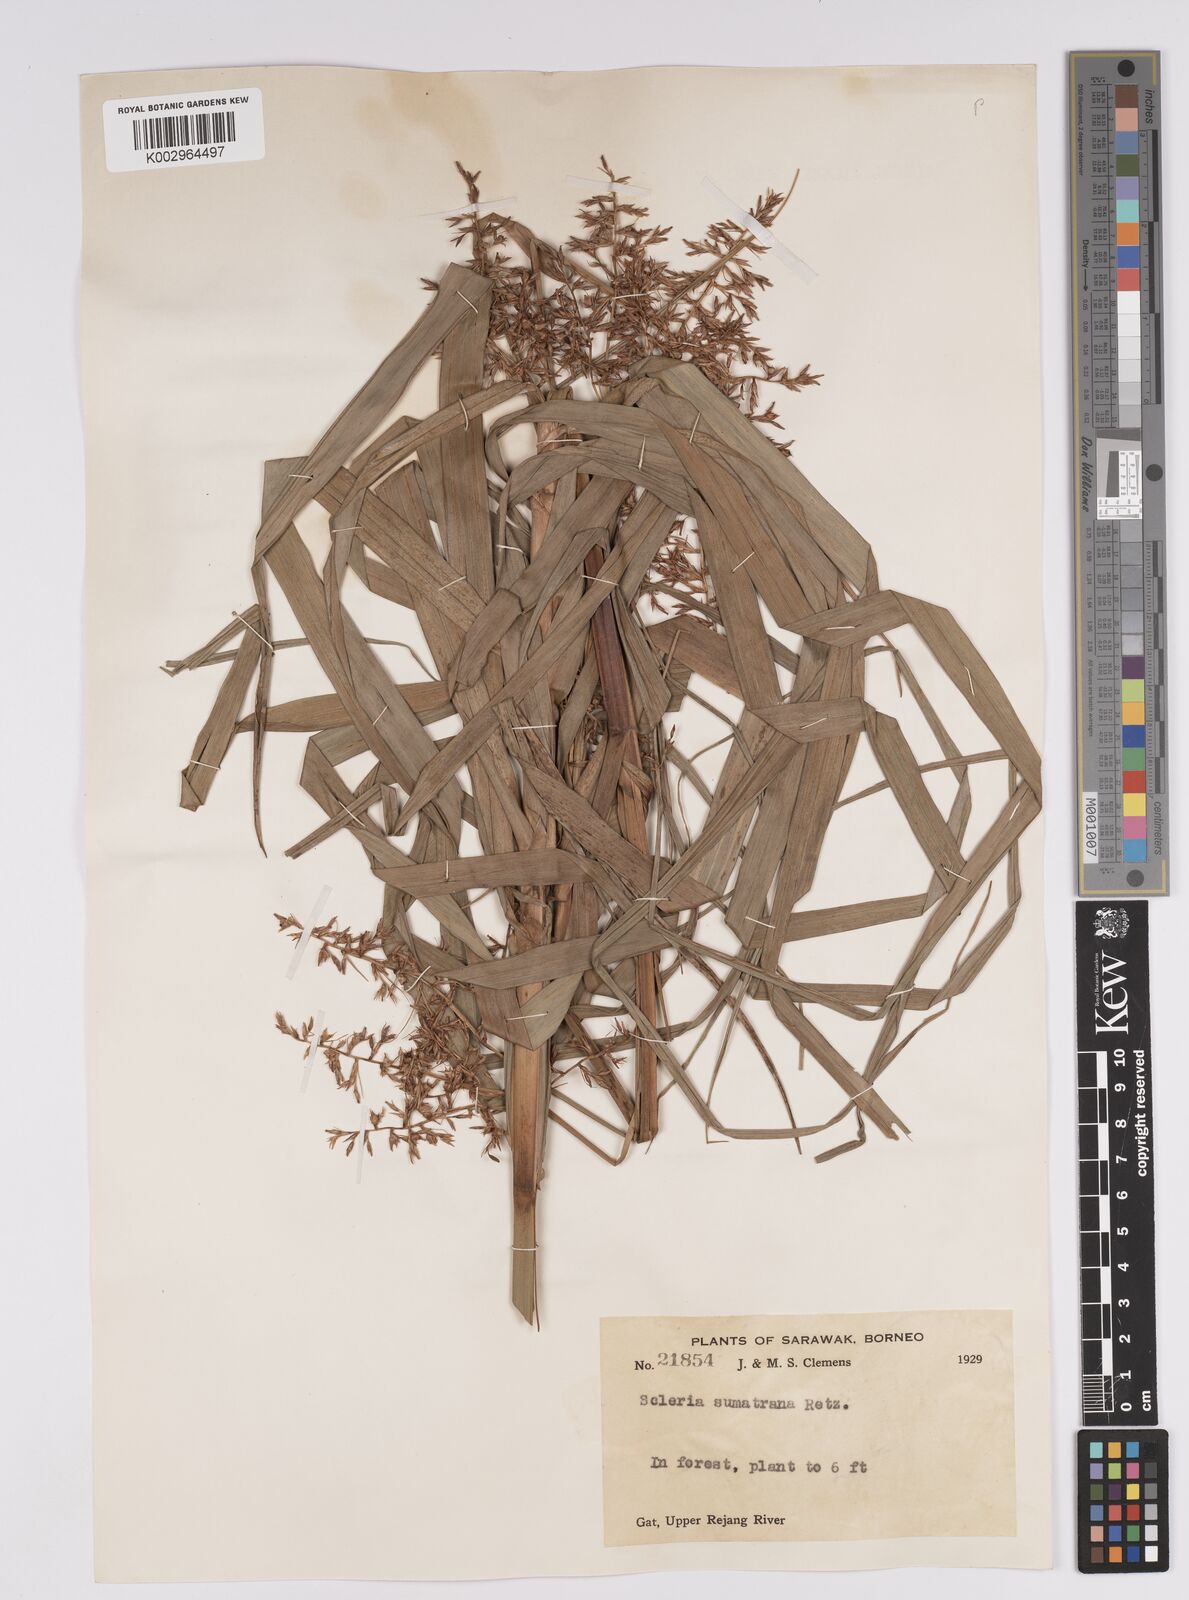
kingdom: Plantae
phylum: Tracheophyta
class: Liliopsida
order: Poales
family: Cyperaceae
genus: Scleria
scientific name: Scleria sumatrensis
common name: Sumatran scleria
